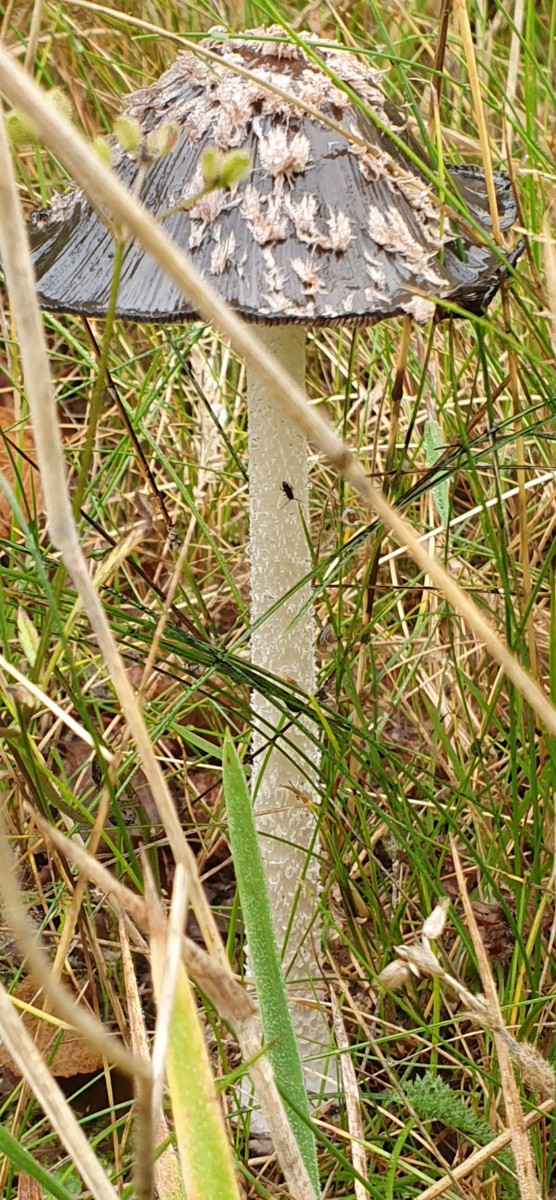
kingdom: Fungi
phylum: Basidiomycota
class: Agaricomycetes
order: Agaricales
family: Psathyrellaceae
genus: Coprinopsis
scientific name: Coprinopsis picacea
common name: skade-blækhat
